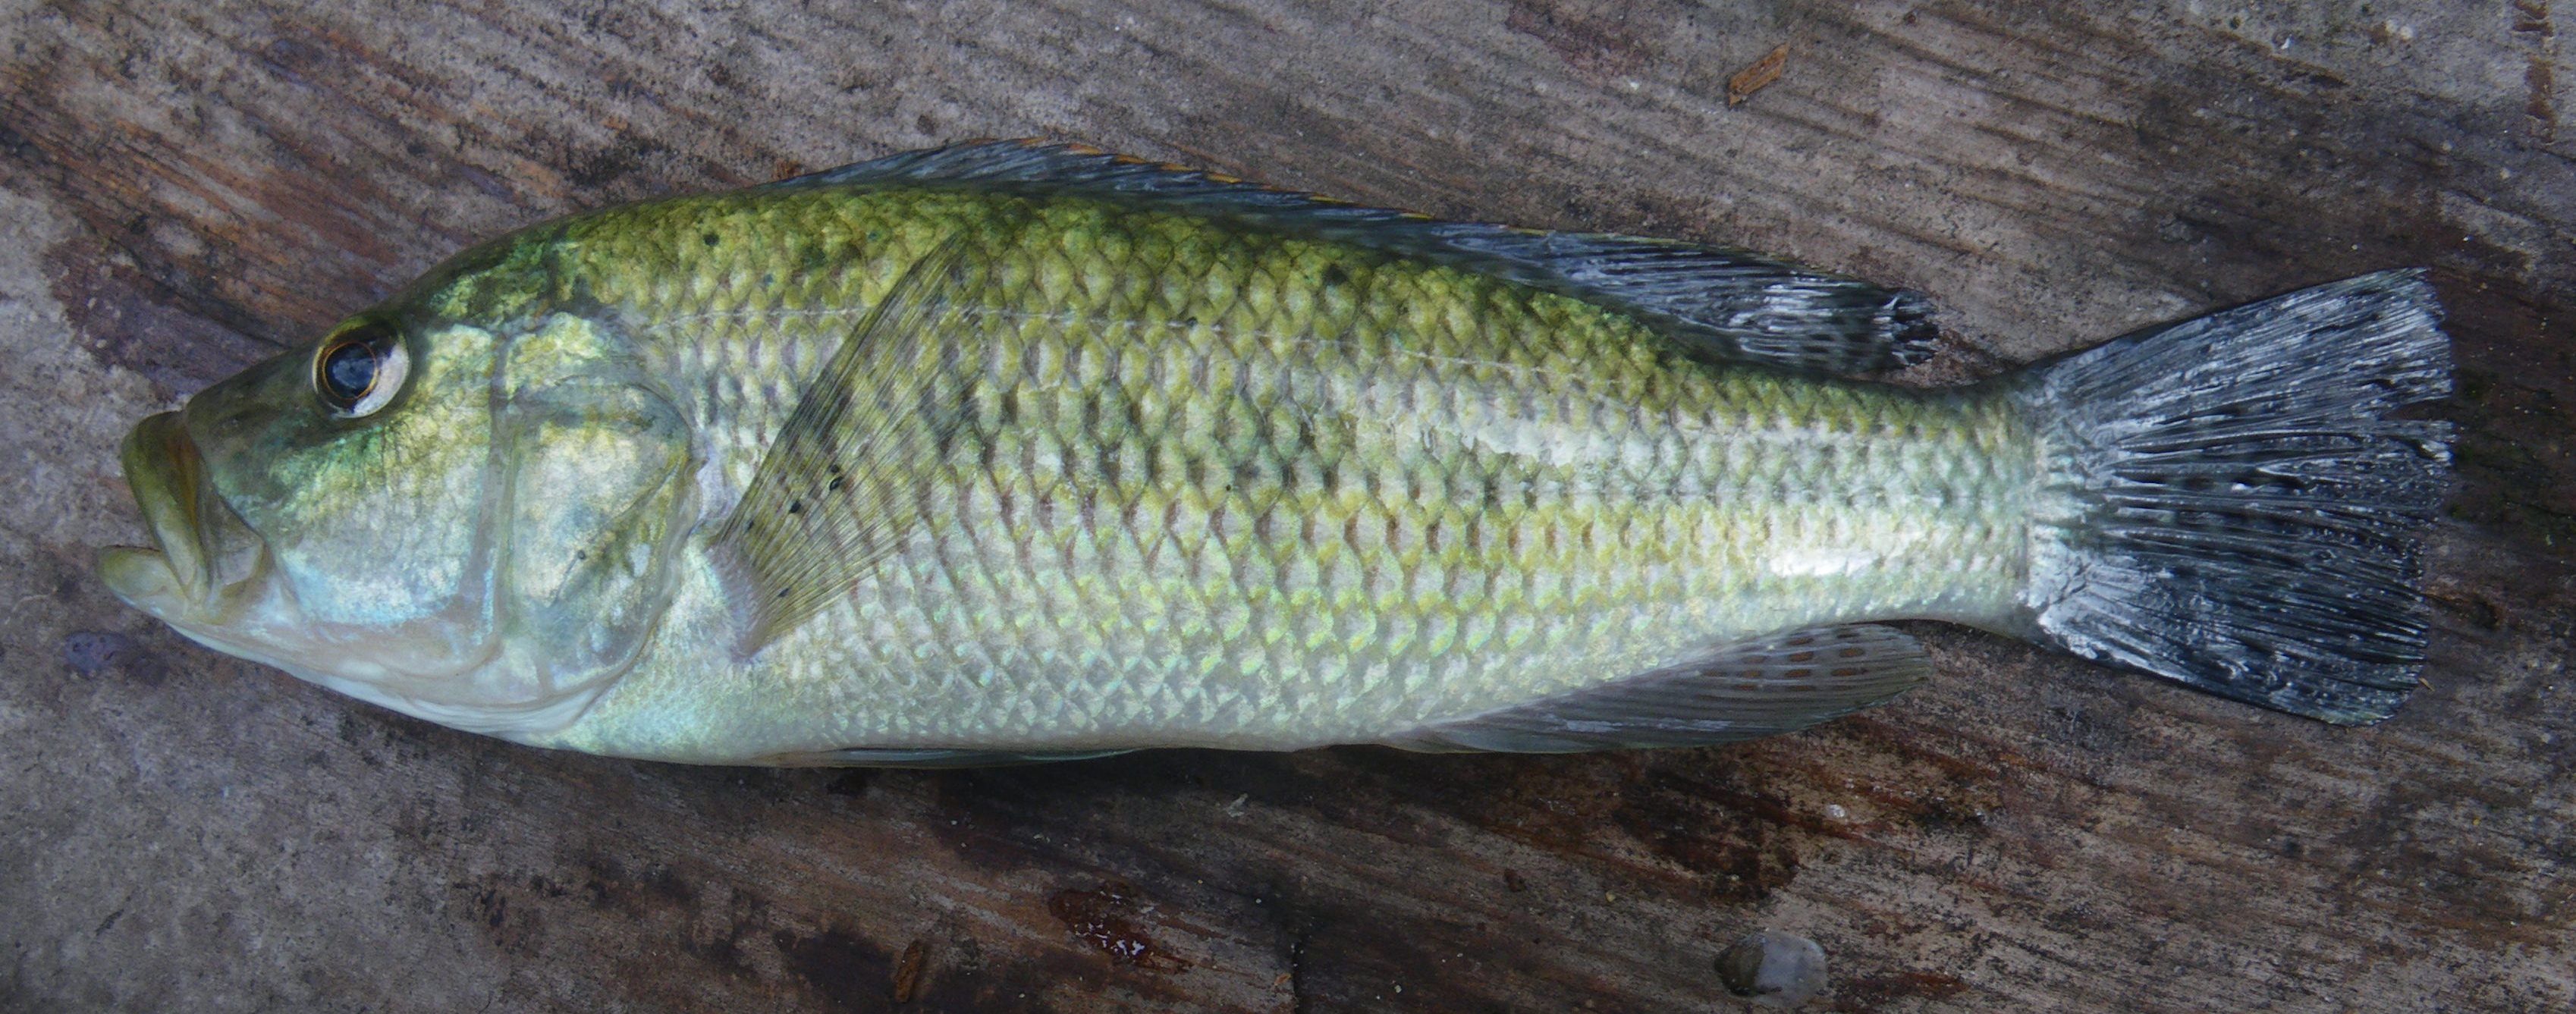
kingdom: Animalia
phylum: Chordata
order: Perciformes
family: Cichlidae
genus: Serranochromis
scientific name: Serranochromis robustus
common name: Yellow-belly bream
